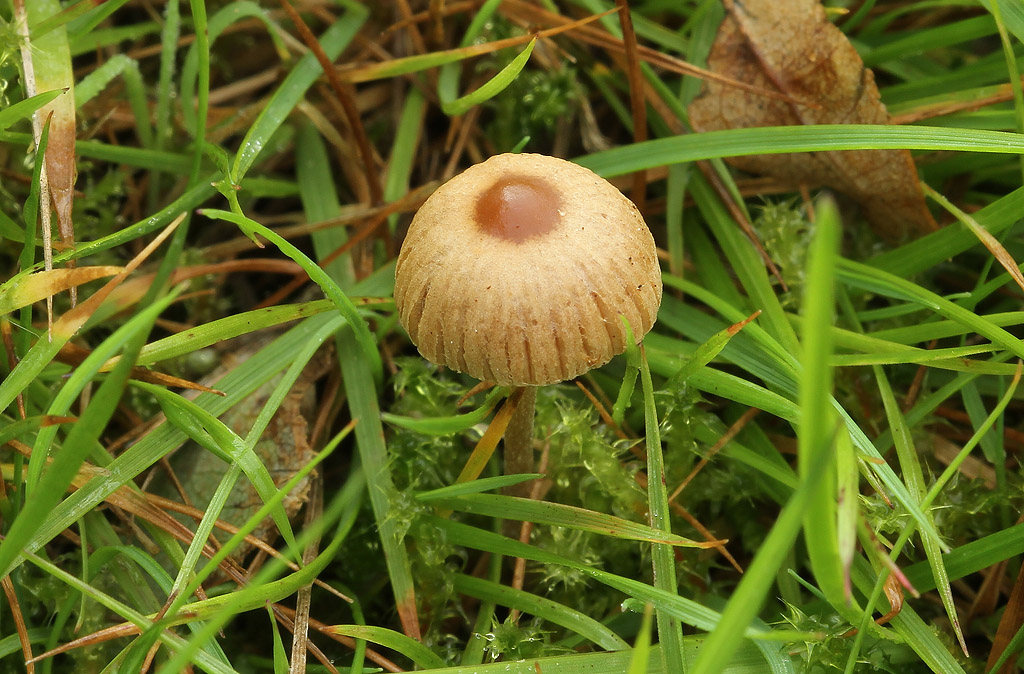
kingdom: Fungi
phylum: Basidiomycota
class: Agaricomycetes
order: Agaricales
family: Bolbitiaceae
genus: Pholiotina
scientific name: Pholiotina sulcata
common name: plisseret dansehat
